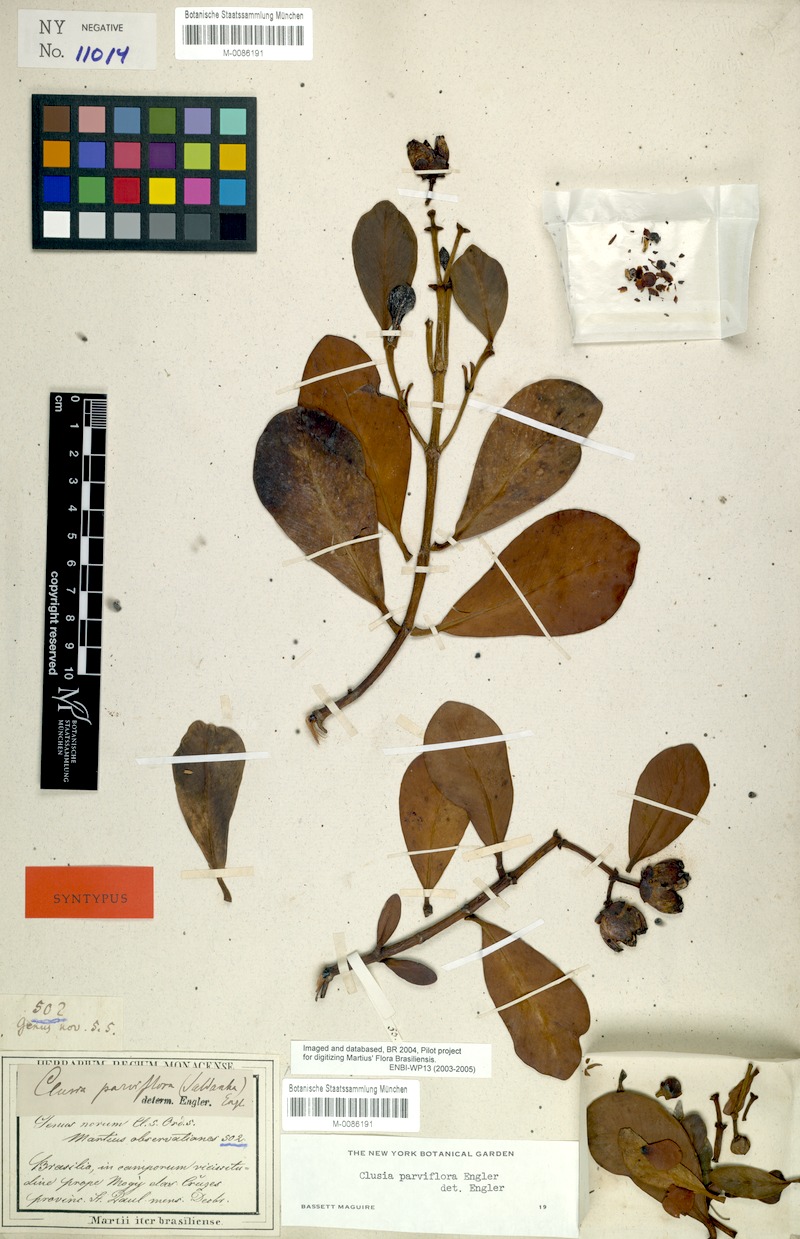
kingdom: Plantae
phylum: Tracheophyta
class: Magnoliopsida
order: Malpighiales
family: Clusiaceae
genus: Clusia
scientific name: Clusia criuva
